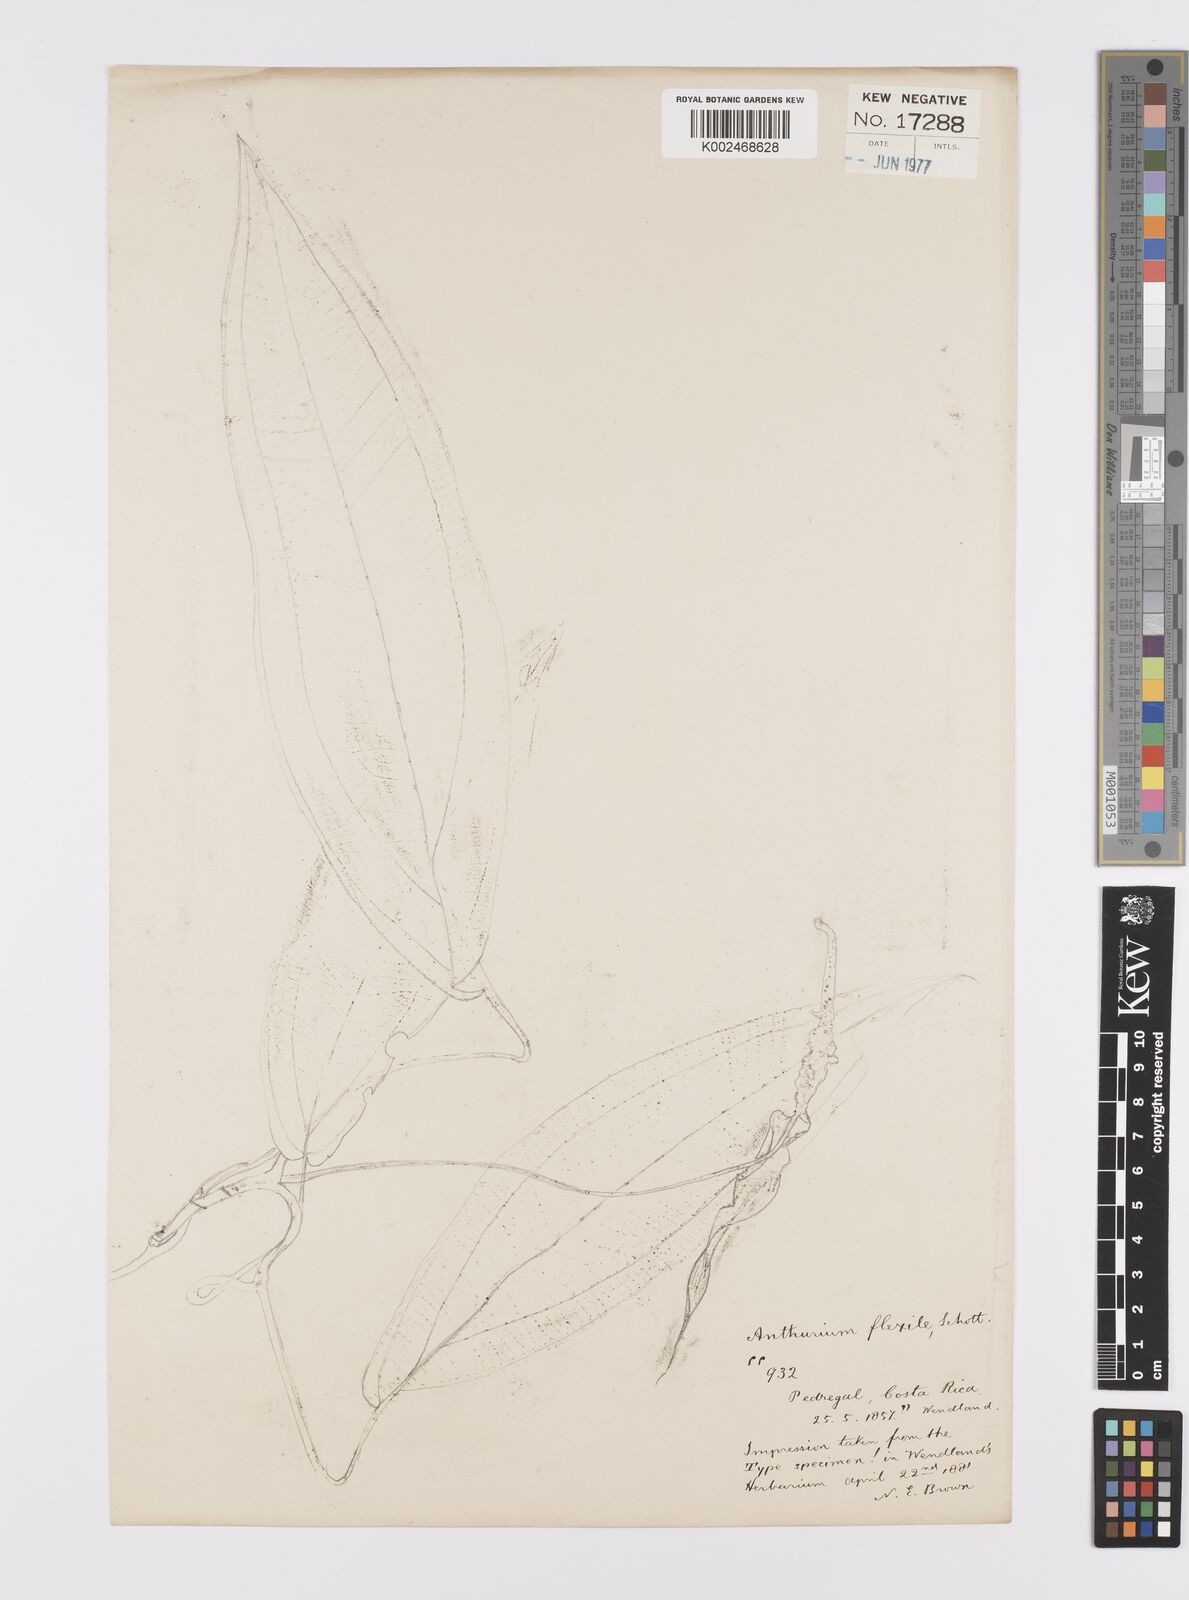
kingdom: Plantae
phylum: Tracheophyta
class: Liliopsida
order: Alismatales
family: Araceae
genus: Anthurium
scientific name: Anthurium flexile
